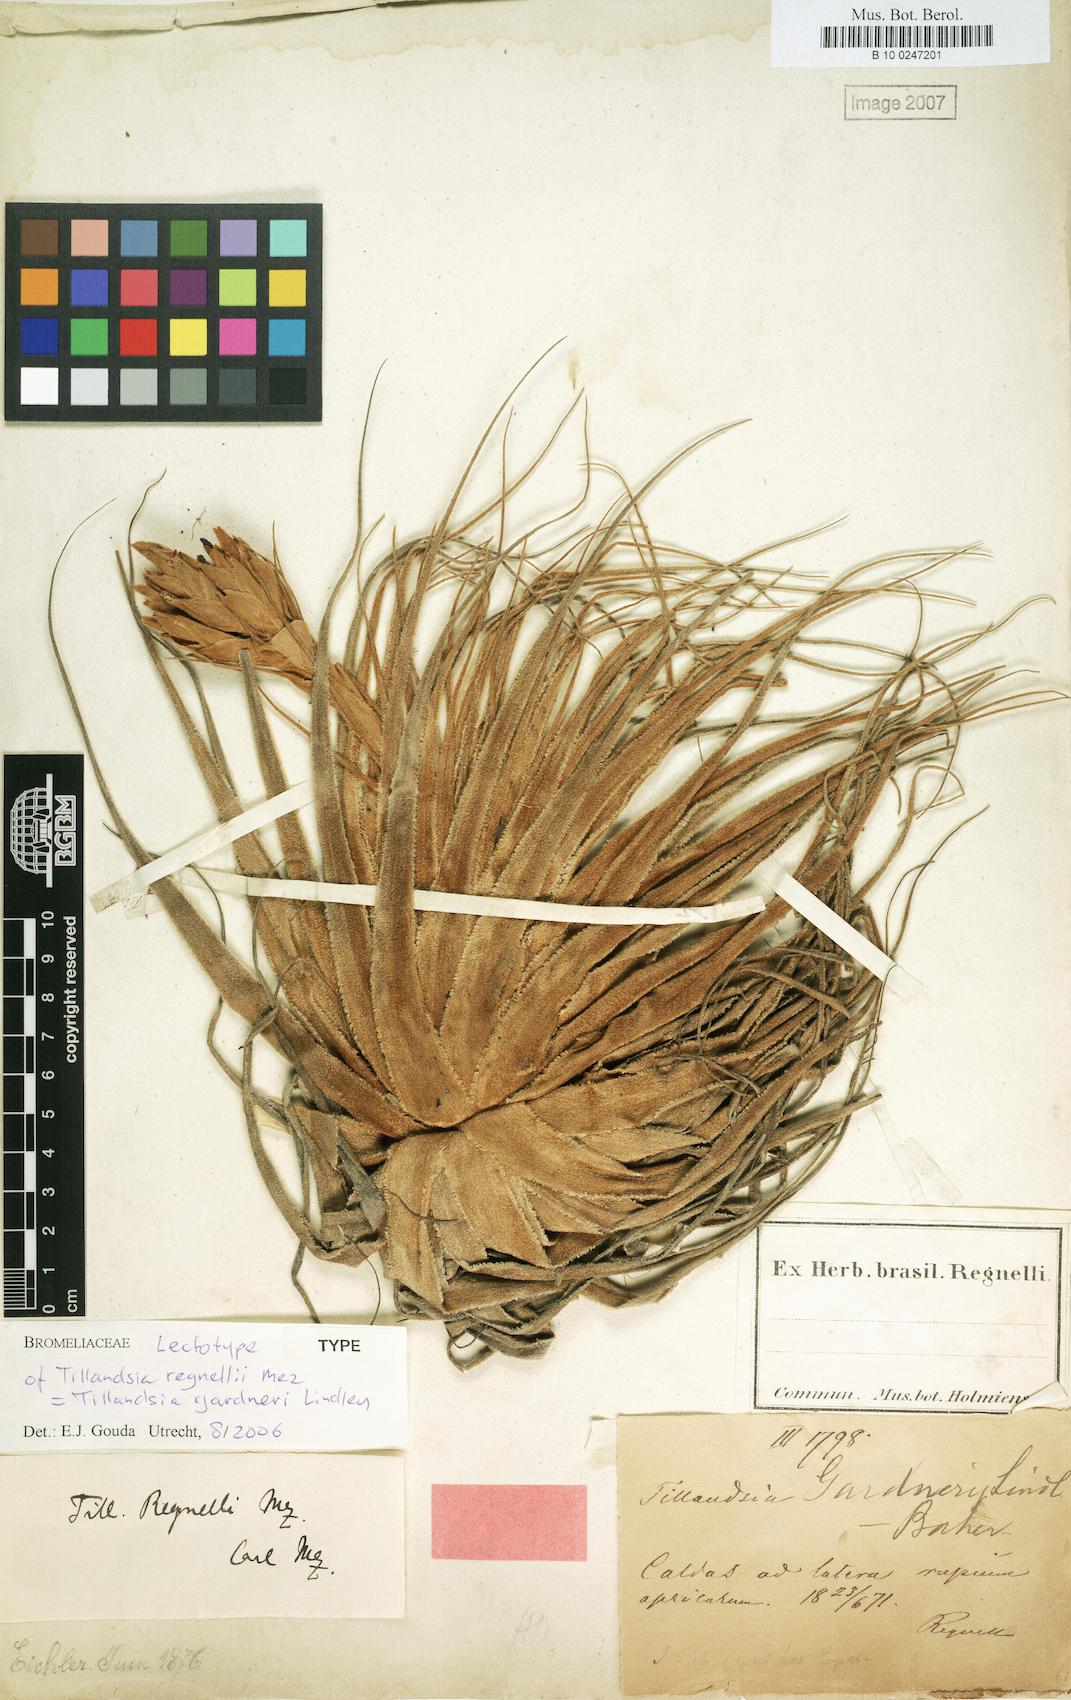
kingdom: Plantae
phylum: Tracheophyta
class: Liliopsida
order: Poales
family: Bromeliaceae
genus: Tillandsia
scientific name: Tillandsia gardneri
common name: Airplant
